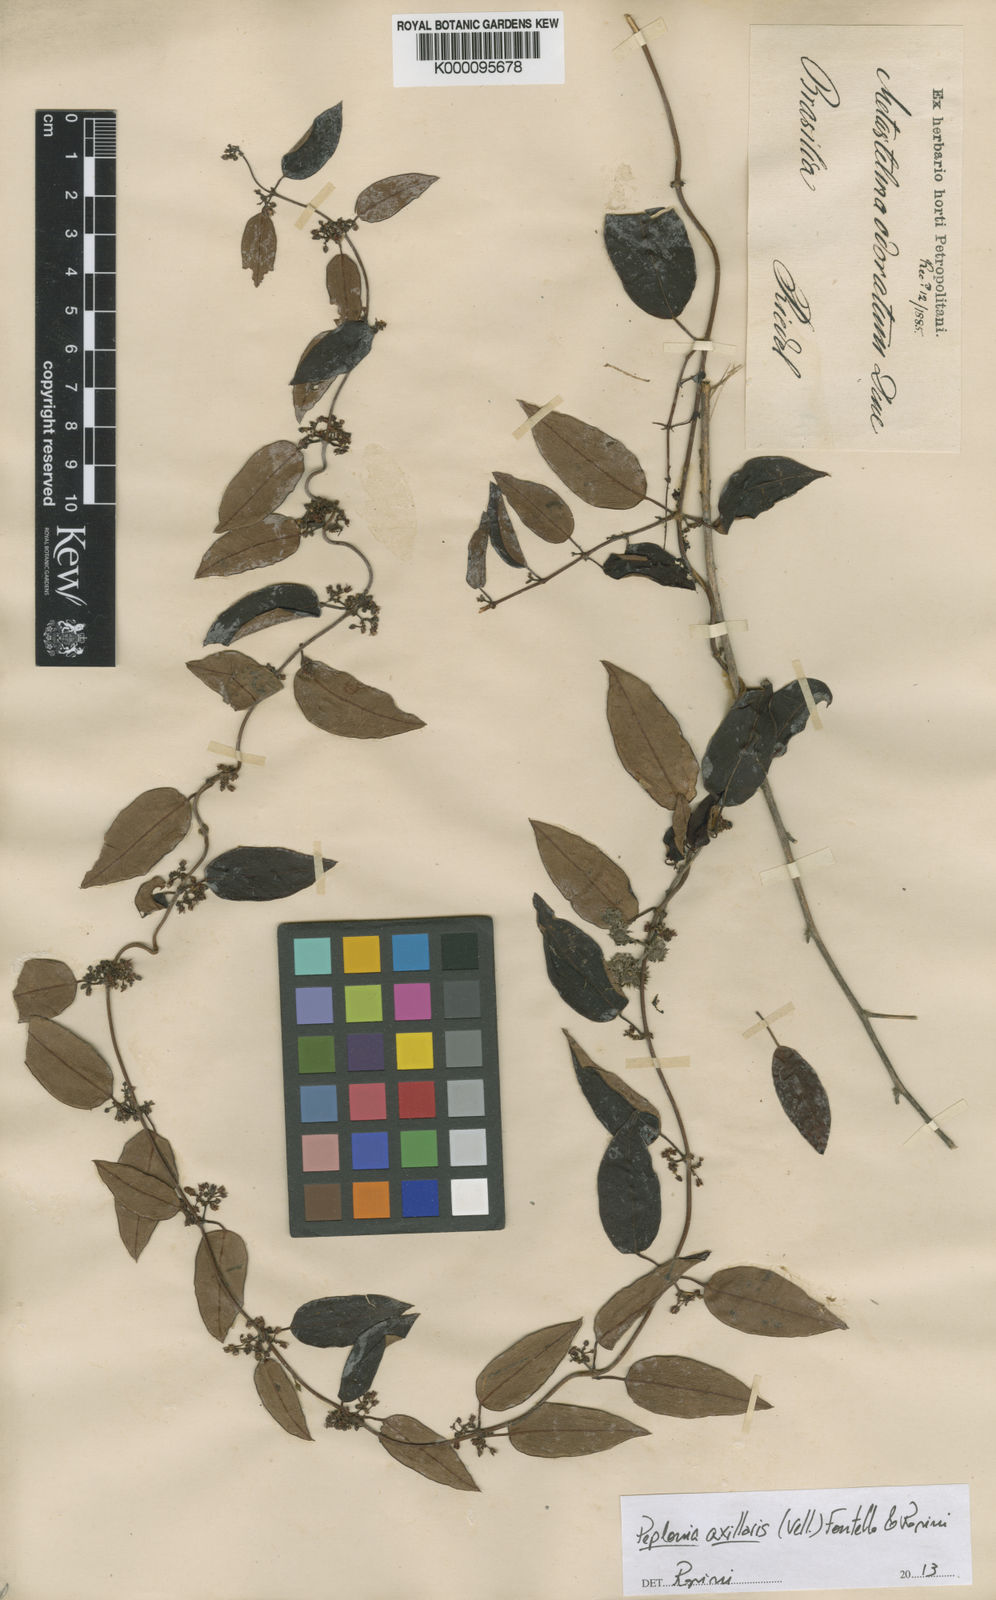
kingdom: Plantae
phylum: Tracheophyta
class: Magnoliopsida
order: Gentianales
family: Apocynaceae
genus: Peplonia
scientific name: Peplonia axillaris
